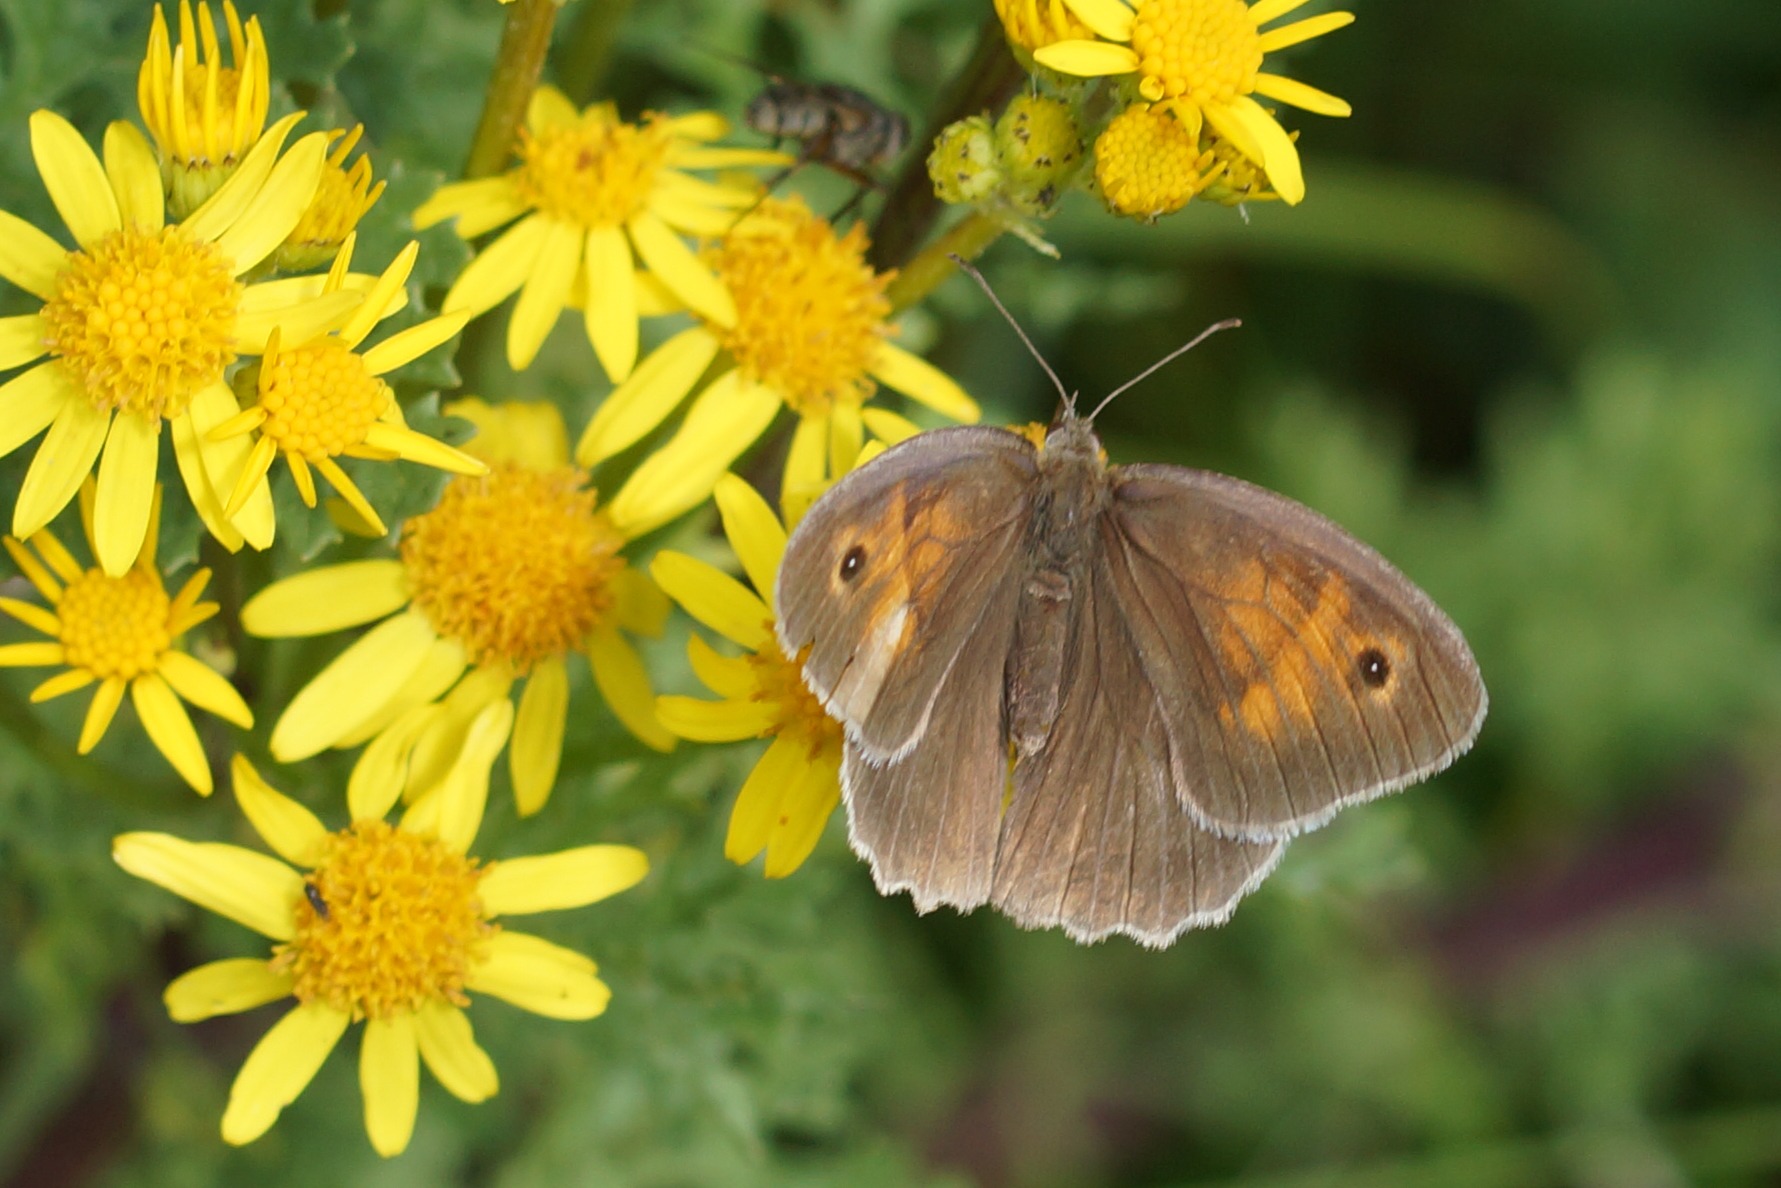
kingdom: Animalia
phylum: Arthropoda
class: Insecta
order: Lepidoptera
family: Nymphalidae
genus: Maniola
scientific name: Maniola jurtina
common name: Græsrandøje
